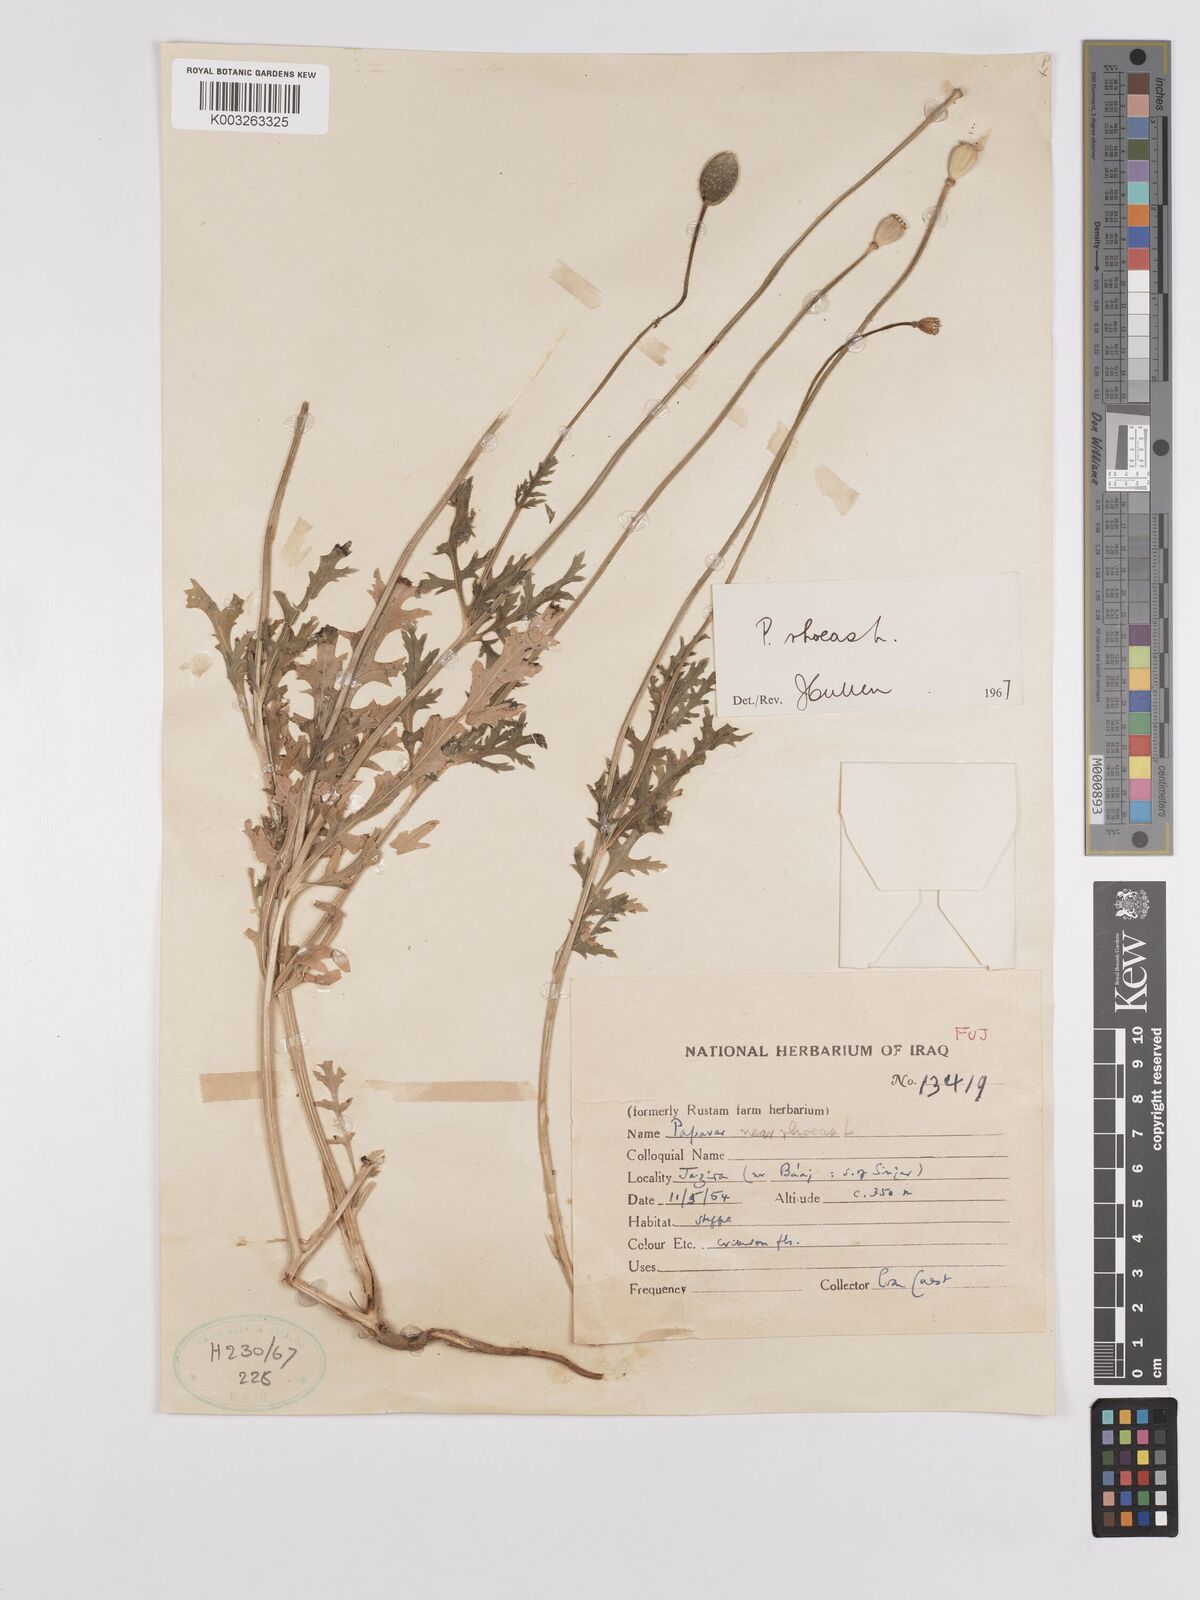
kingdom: Plantae
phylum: Tracheophyta
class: Magnoliopsida
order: Ranunculales
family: Papaveraceae
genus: Papaver
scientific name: Papaver rhoeas
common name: Corn poppy
